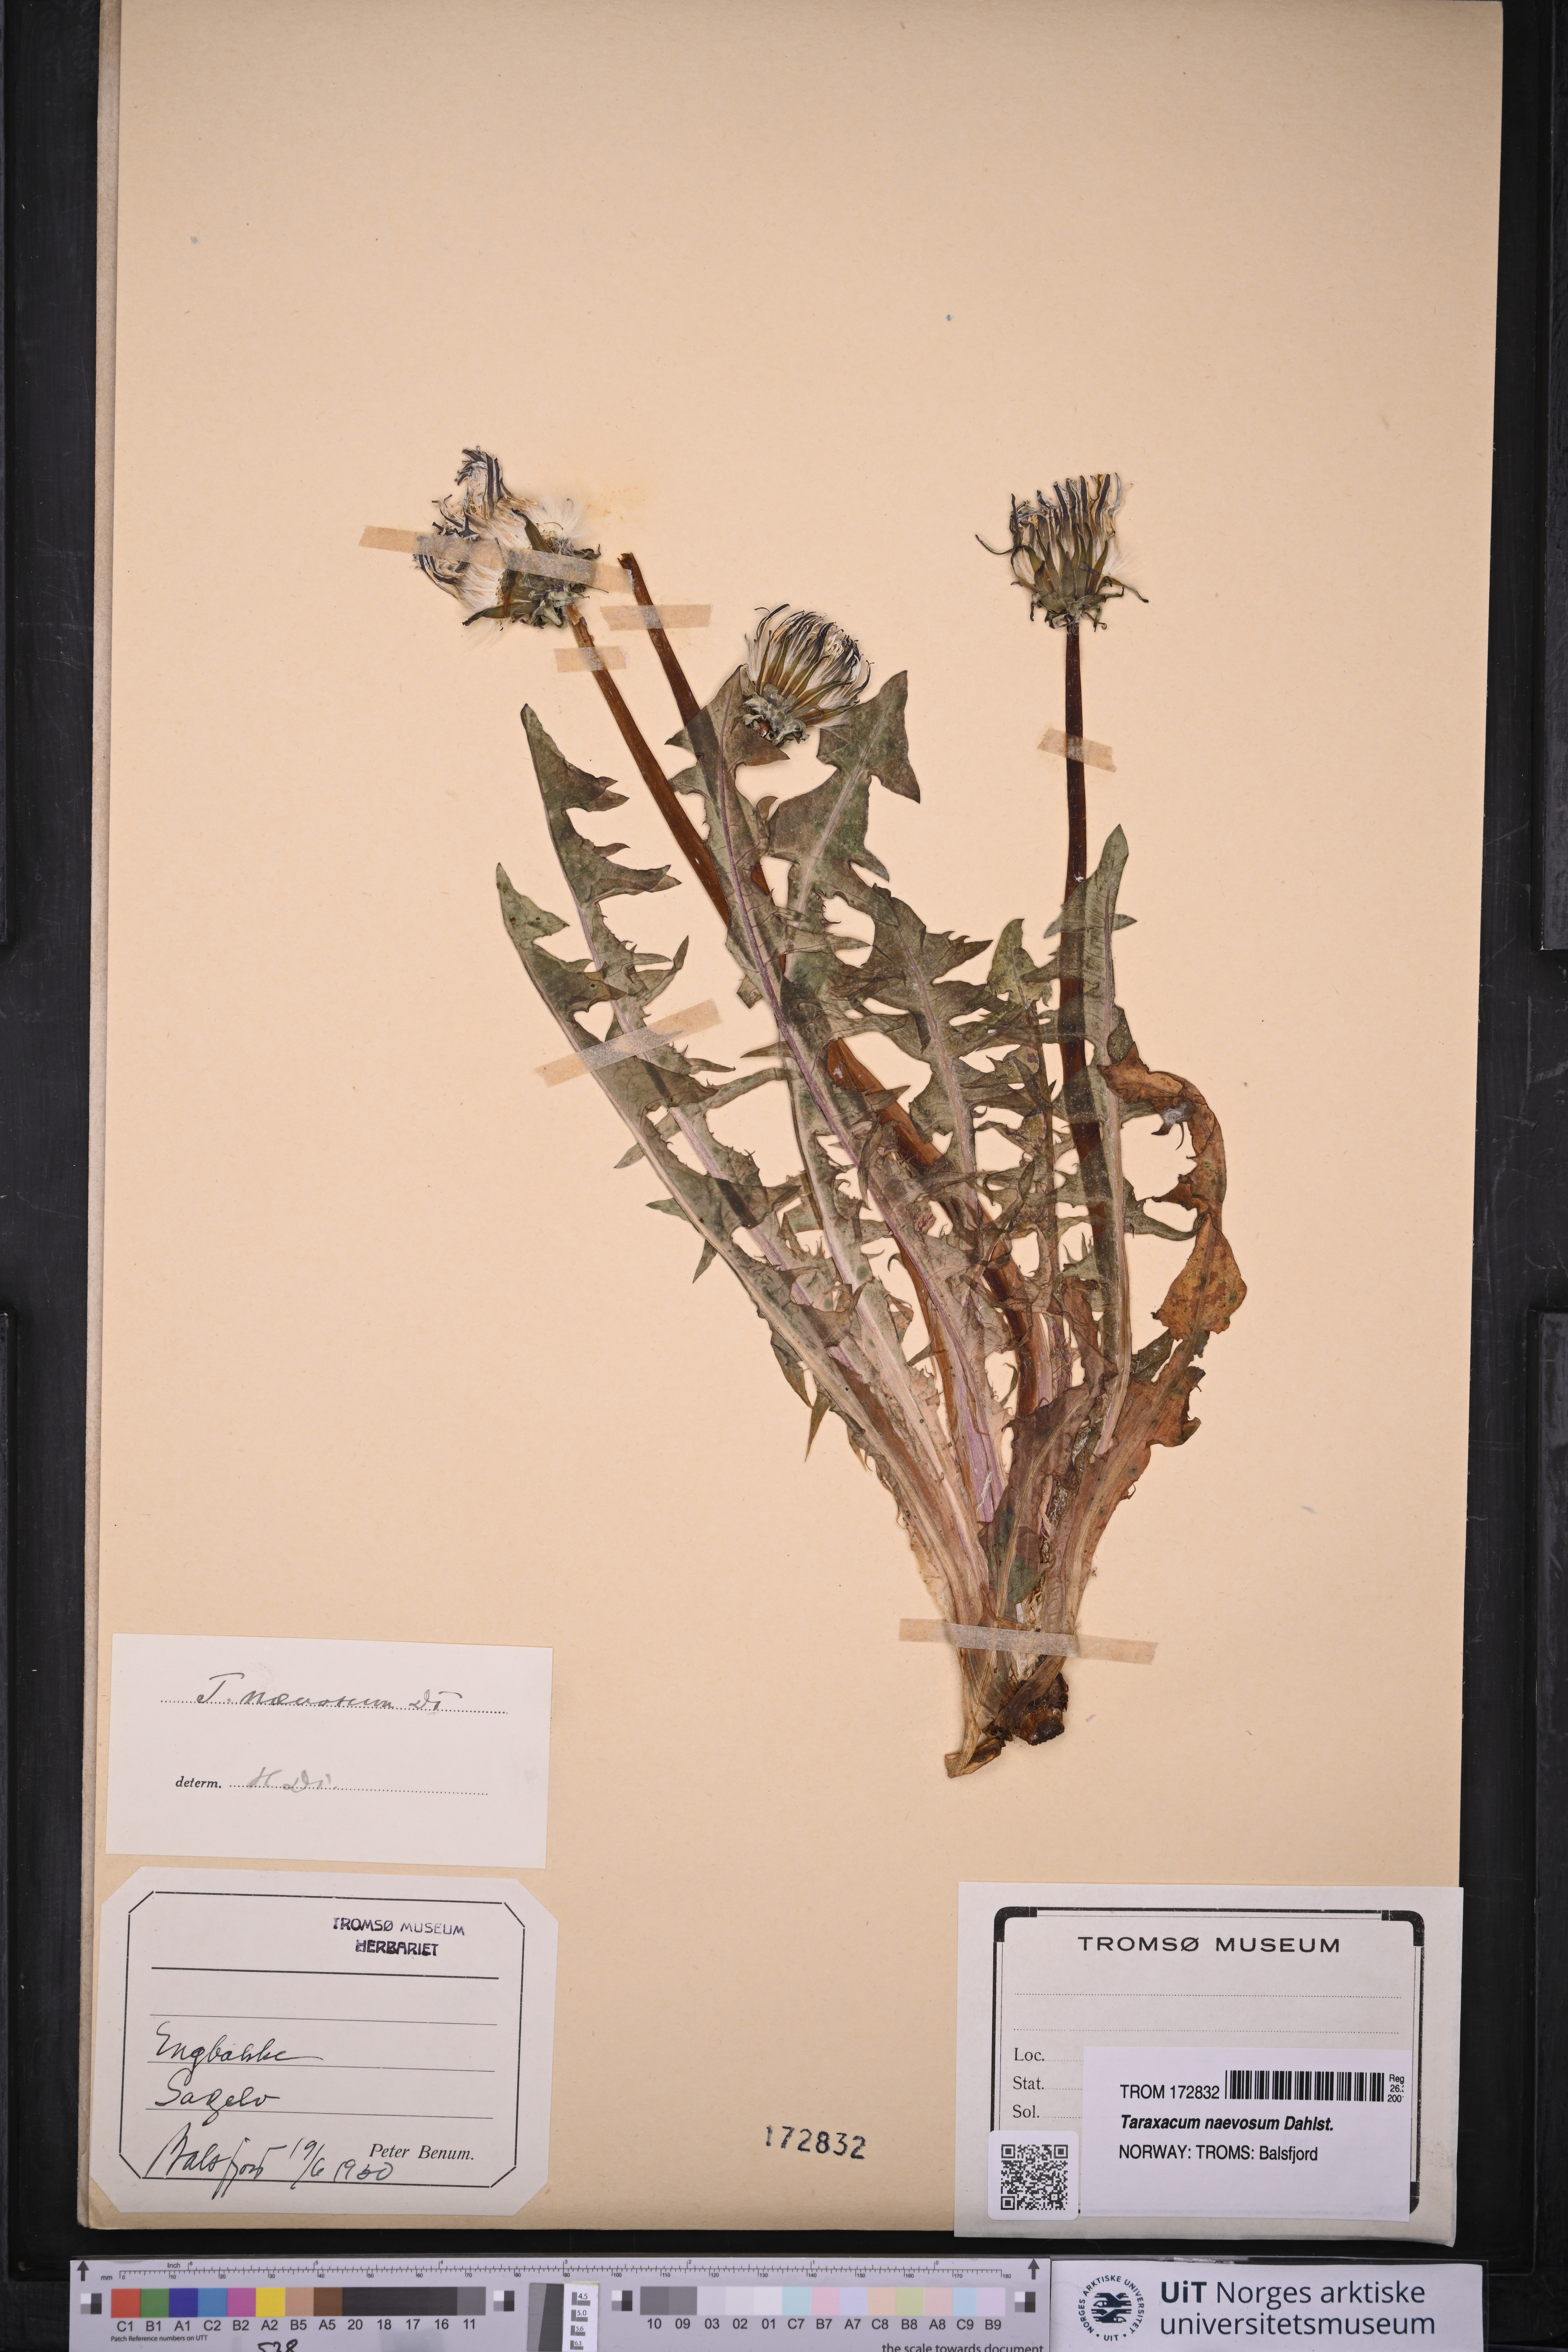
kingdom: Plantae
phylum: Tracheophyta
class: Magnoliopsida
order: Asterales
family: Asteraceae
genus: Taraxacum
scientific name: Taraxacum naevosum
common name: Squat dandelion
